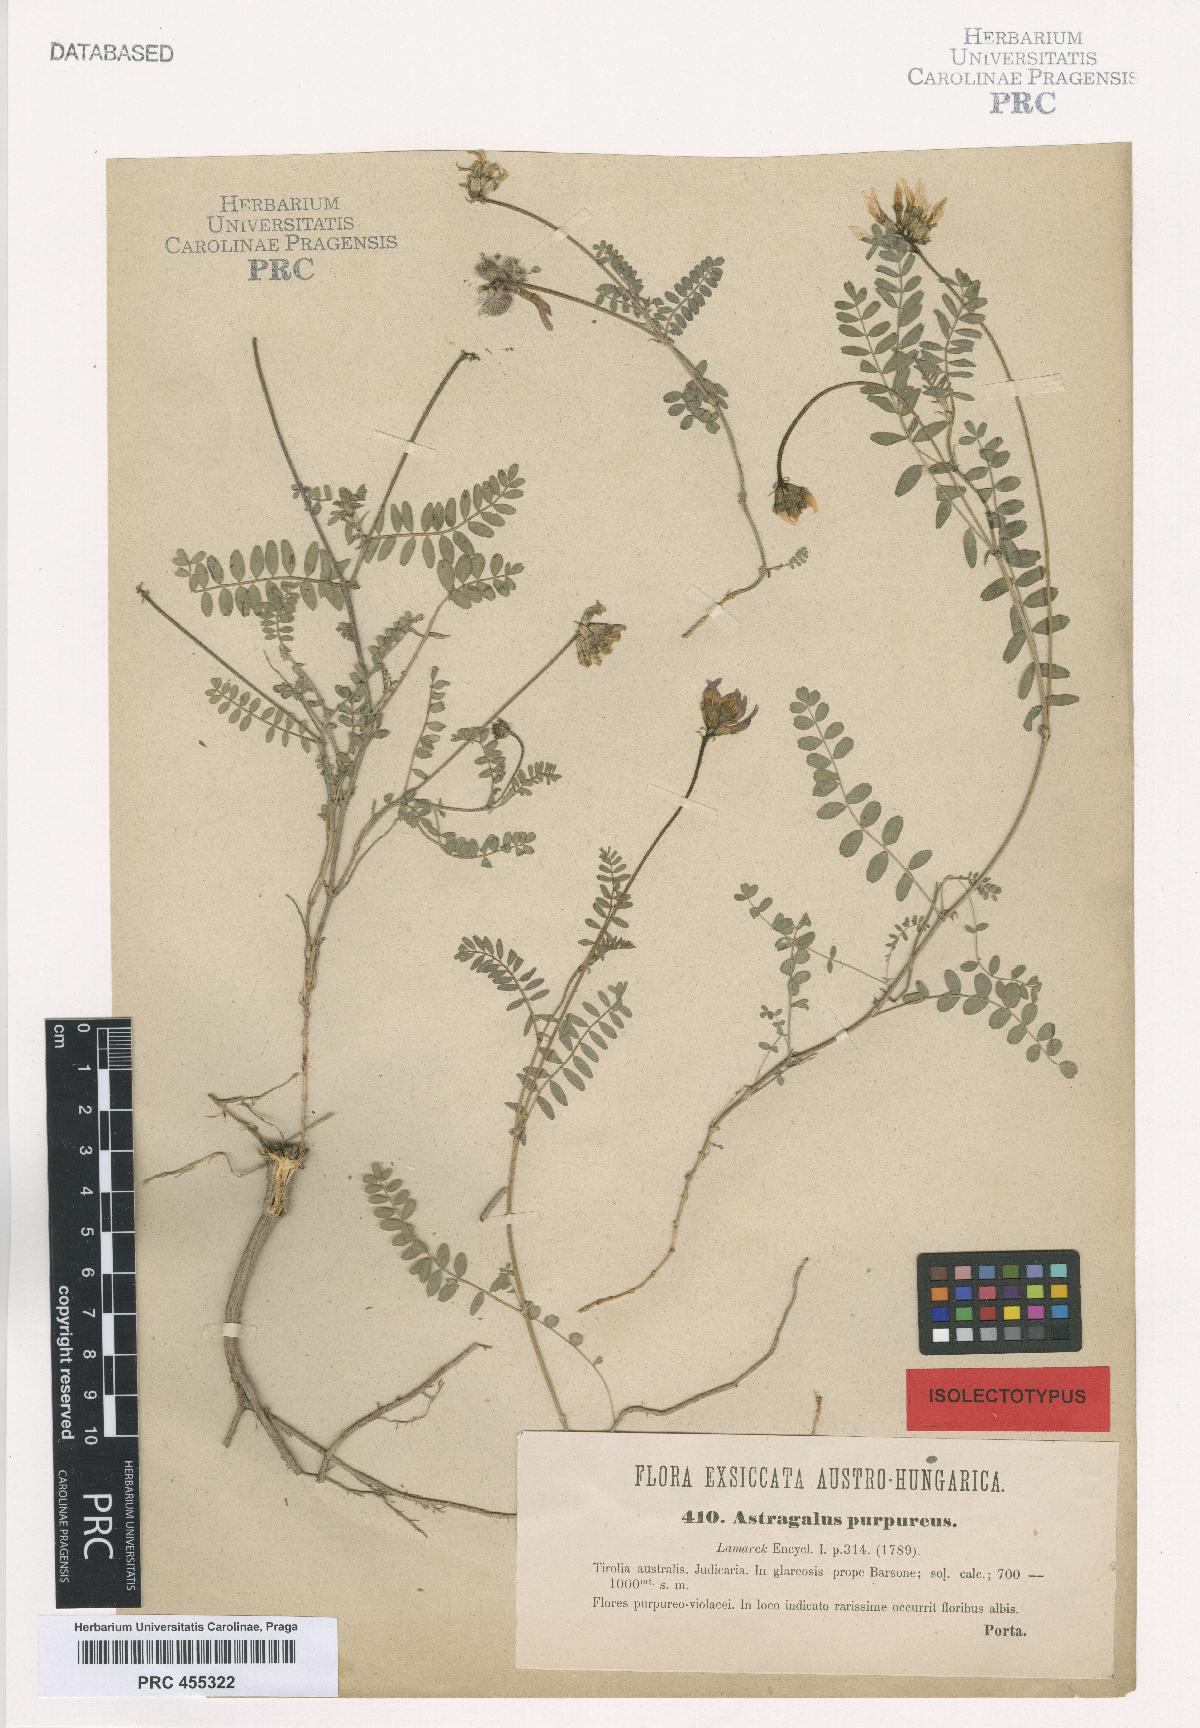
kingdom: Plantae
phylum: Tracheophyta
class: Magnoliopsida
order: Fabales
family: Fabaceae
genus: Astragalus
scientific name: Astragalus hypoglottis
